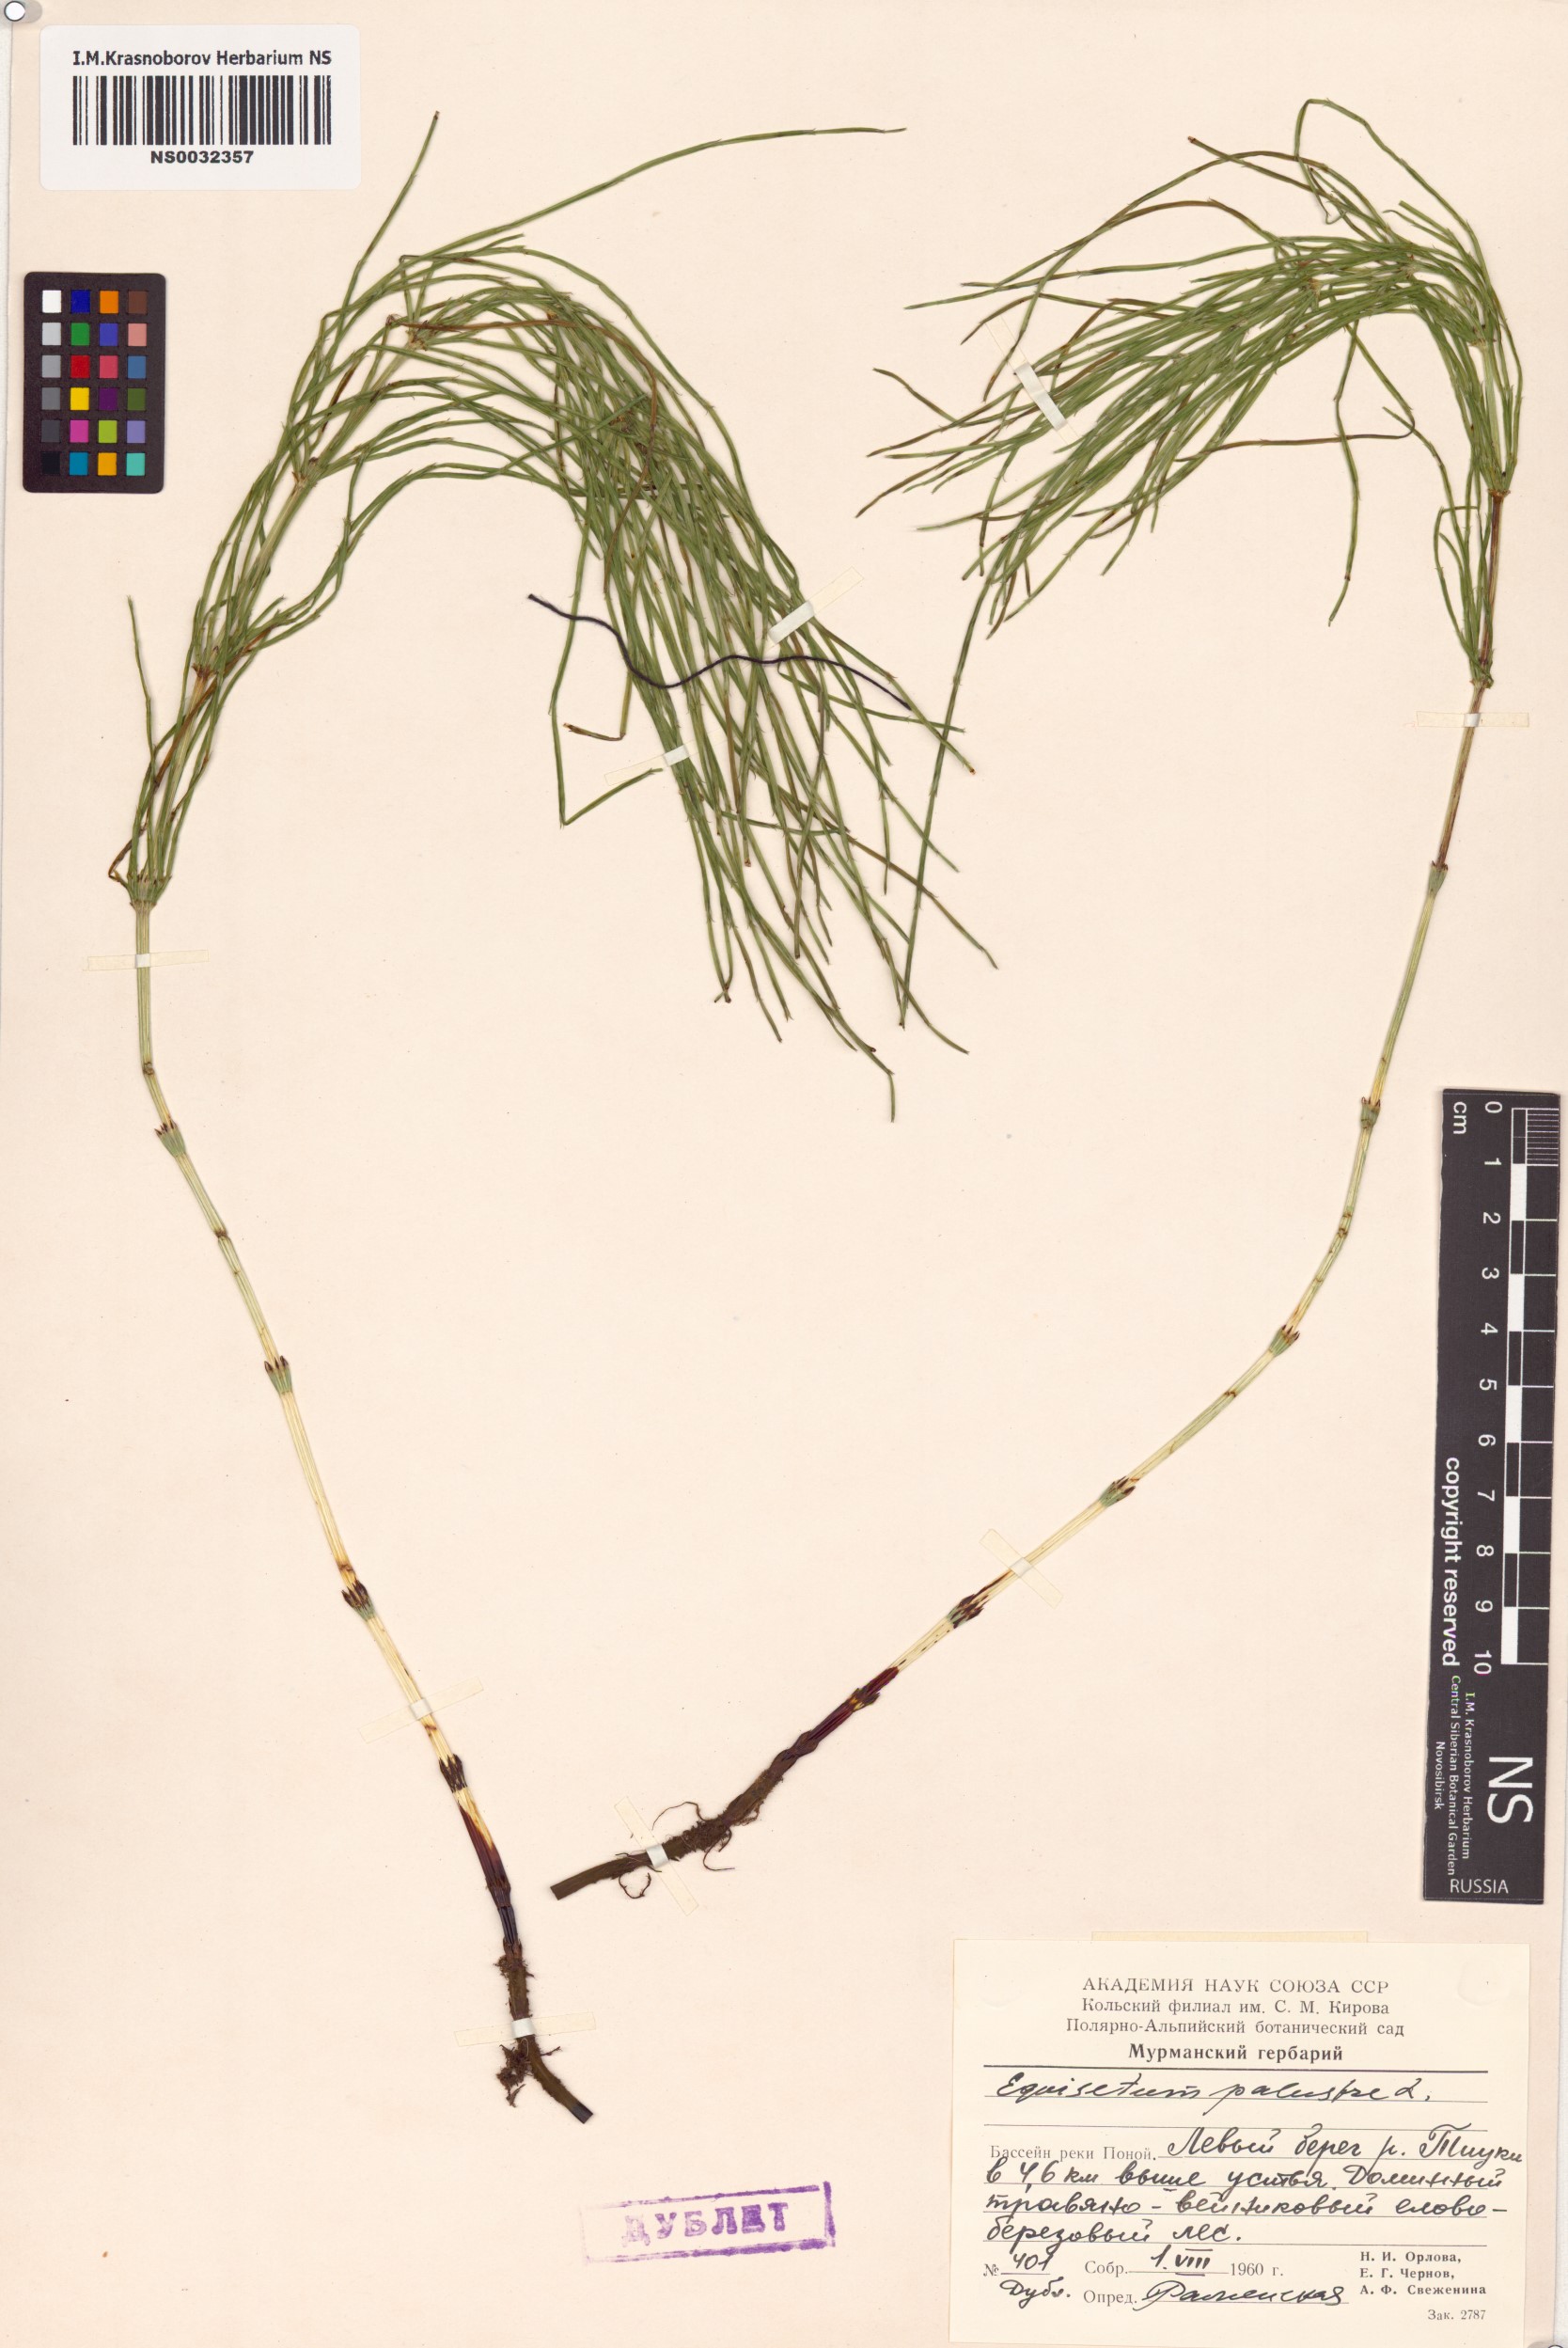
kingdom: Plantae
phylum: Tracheophyta
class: Polypodiopsida
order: Equisetales
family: Equisetaceae
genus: Equisetum
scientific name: Equisetum palustre
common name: Marsh horsetail
